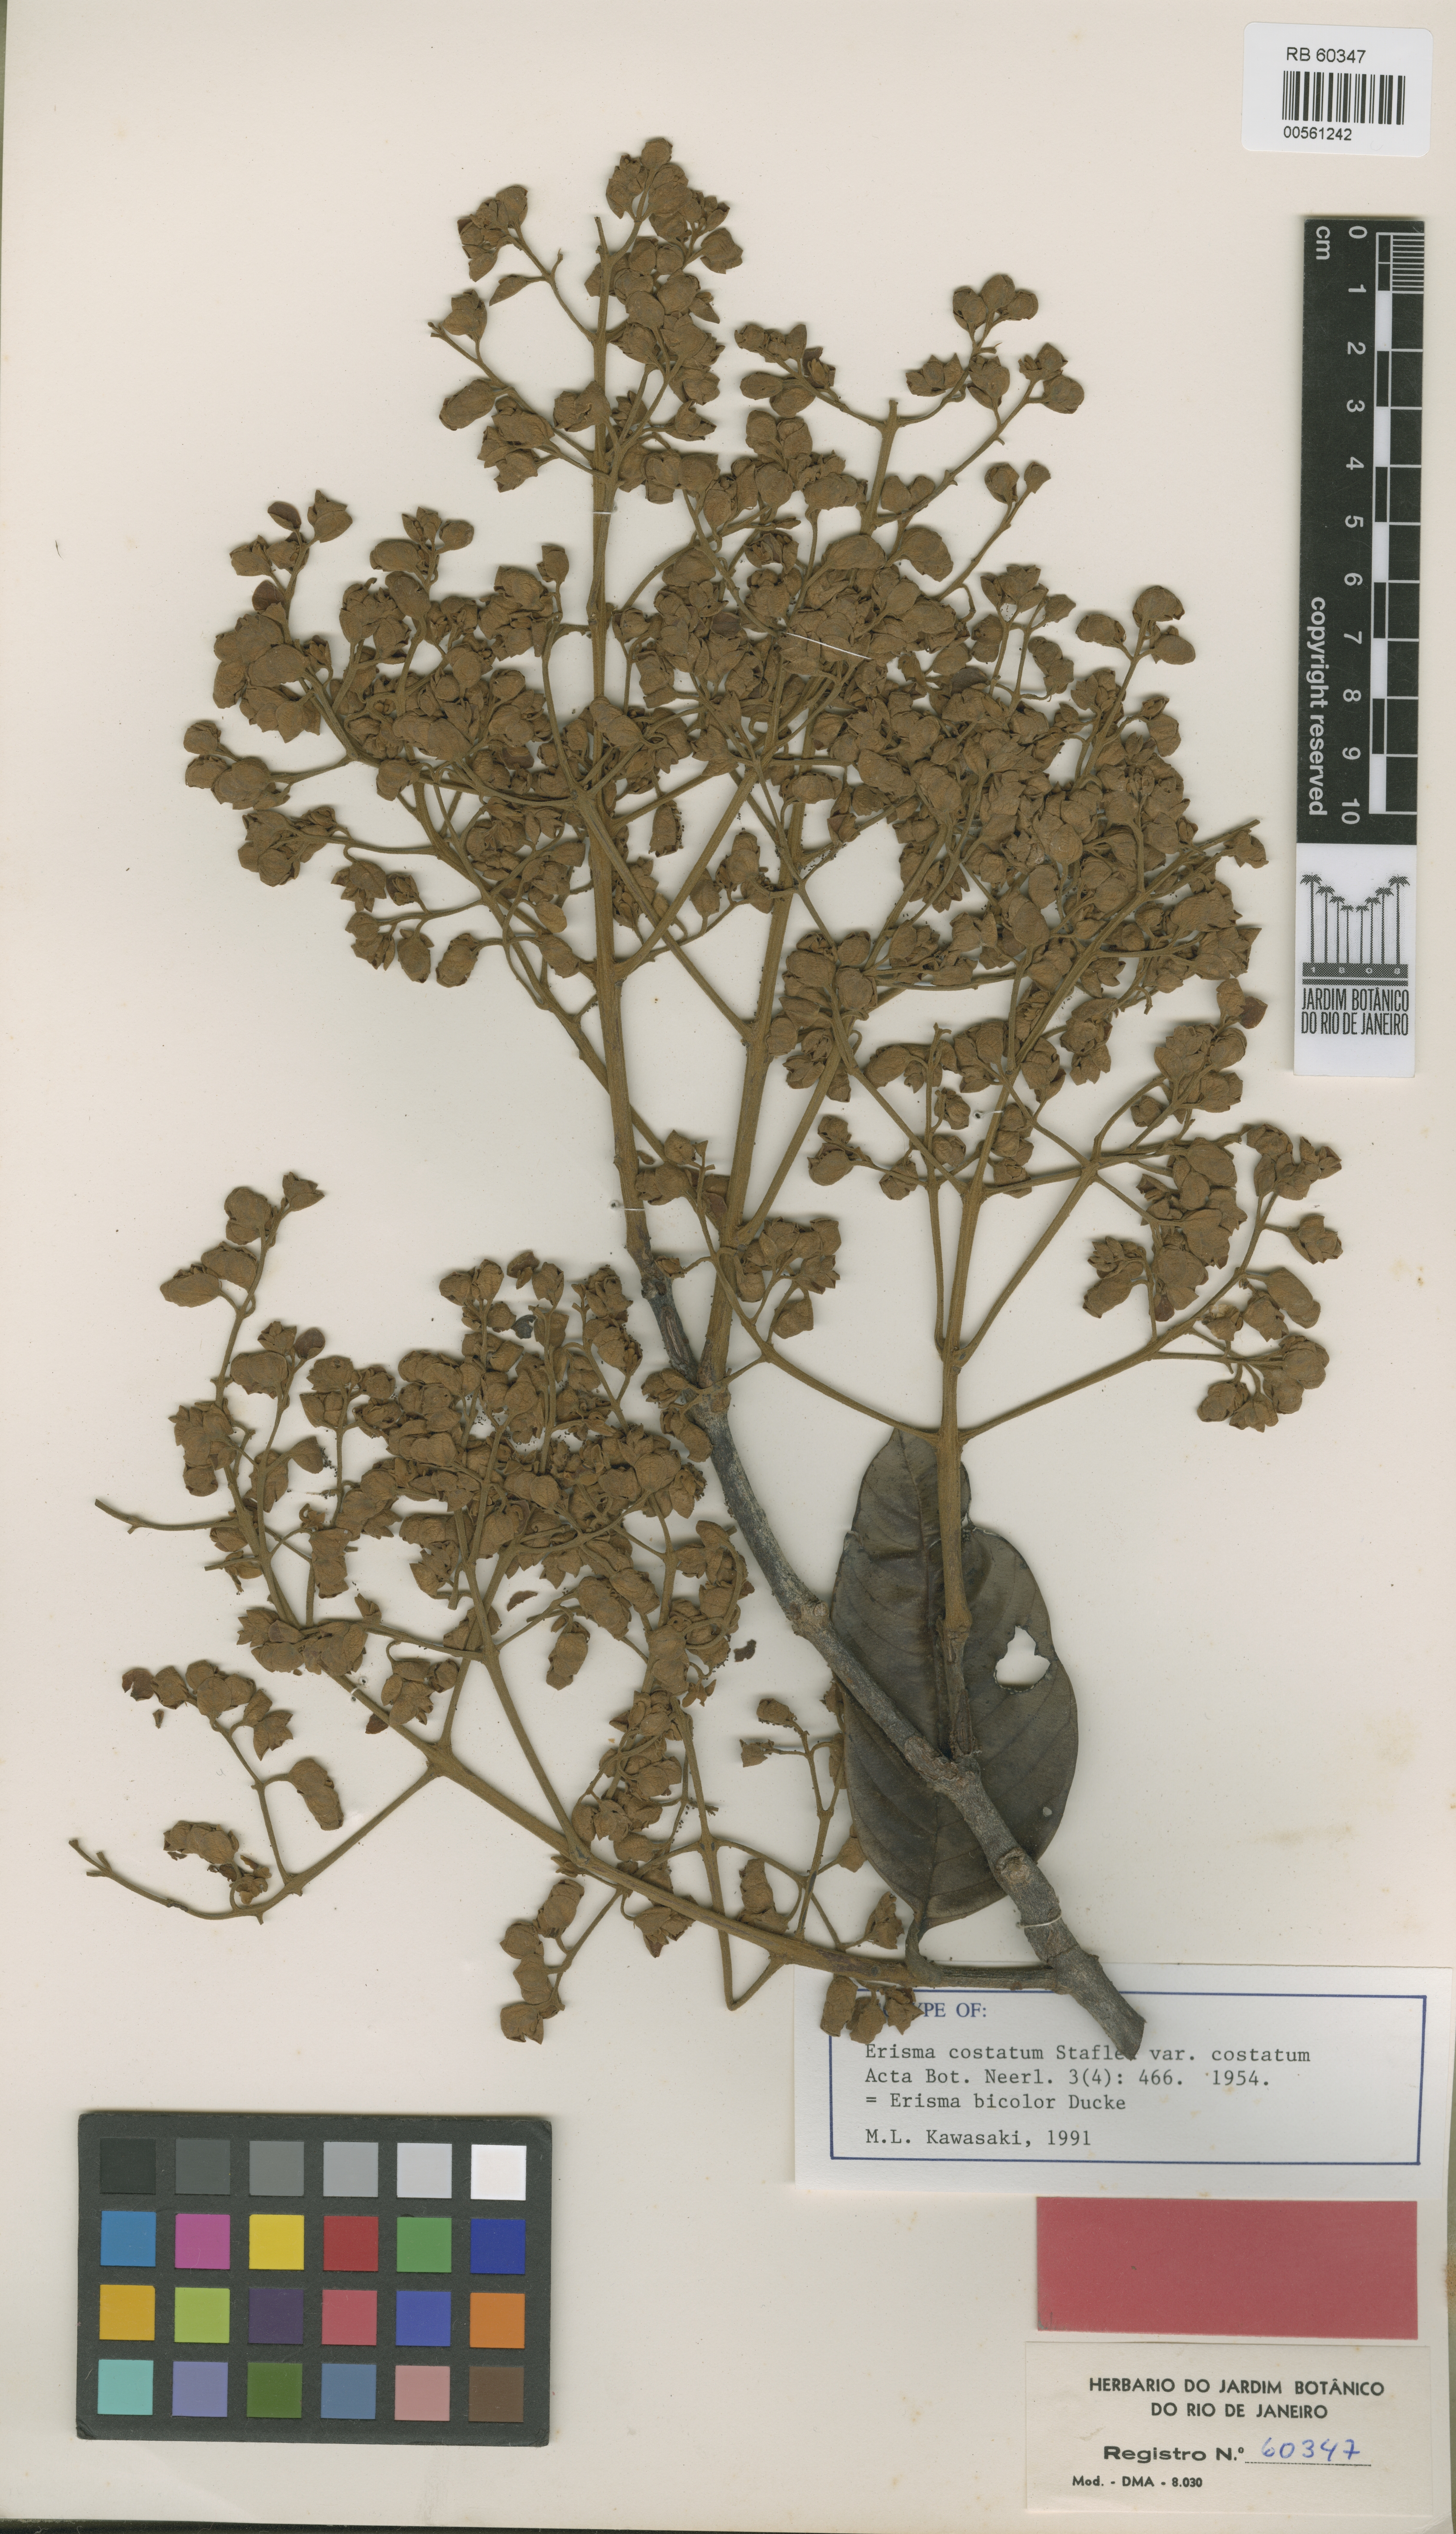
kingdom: Plantae
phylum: Tracheophyta
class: Magnoliopsida
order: Myrtales
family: Vochysiaceae
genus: Erisma
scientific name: Erisma bicolor
